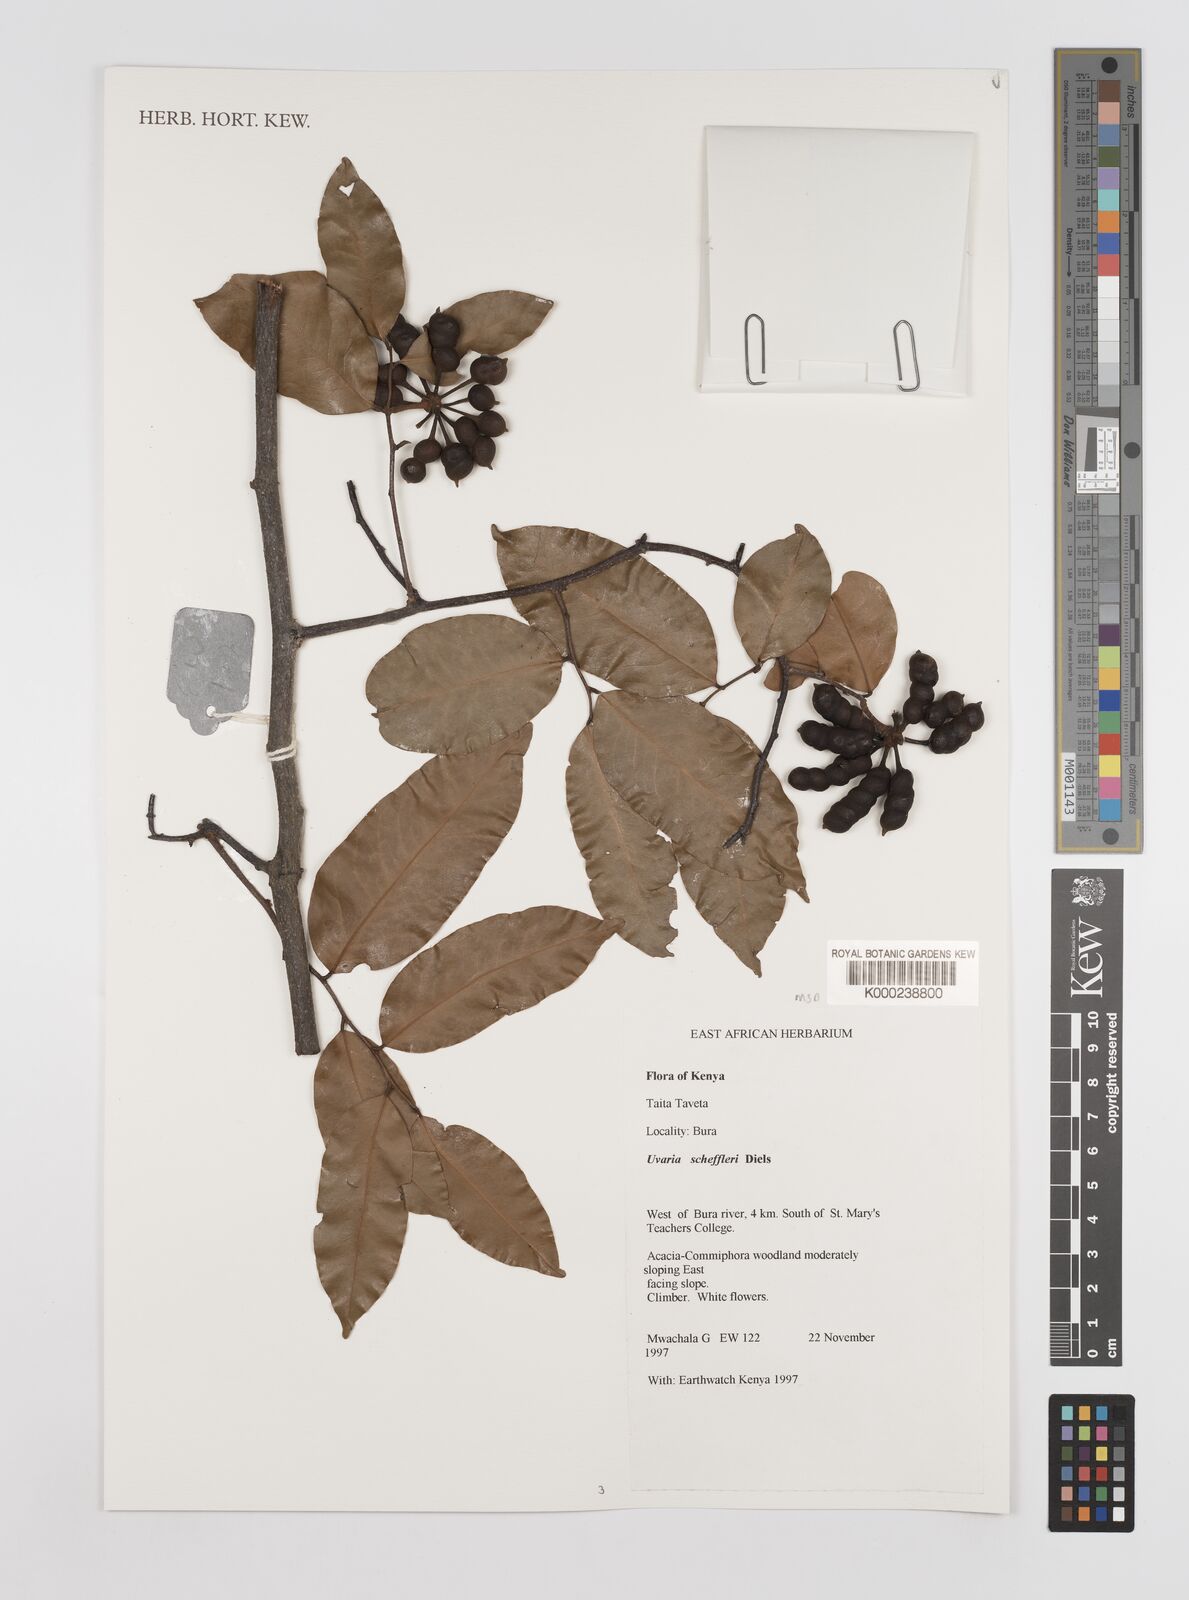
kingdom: Plantae
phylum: Tracheophyta
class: Magnoliopsida
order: Magnoliales
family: Annonaceae
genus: Uvaria
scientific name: Uvaria scheffleri
